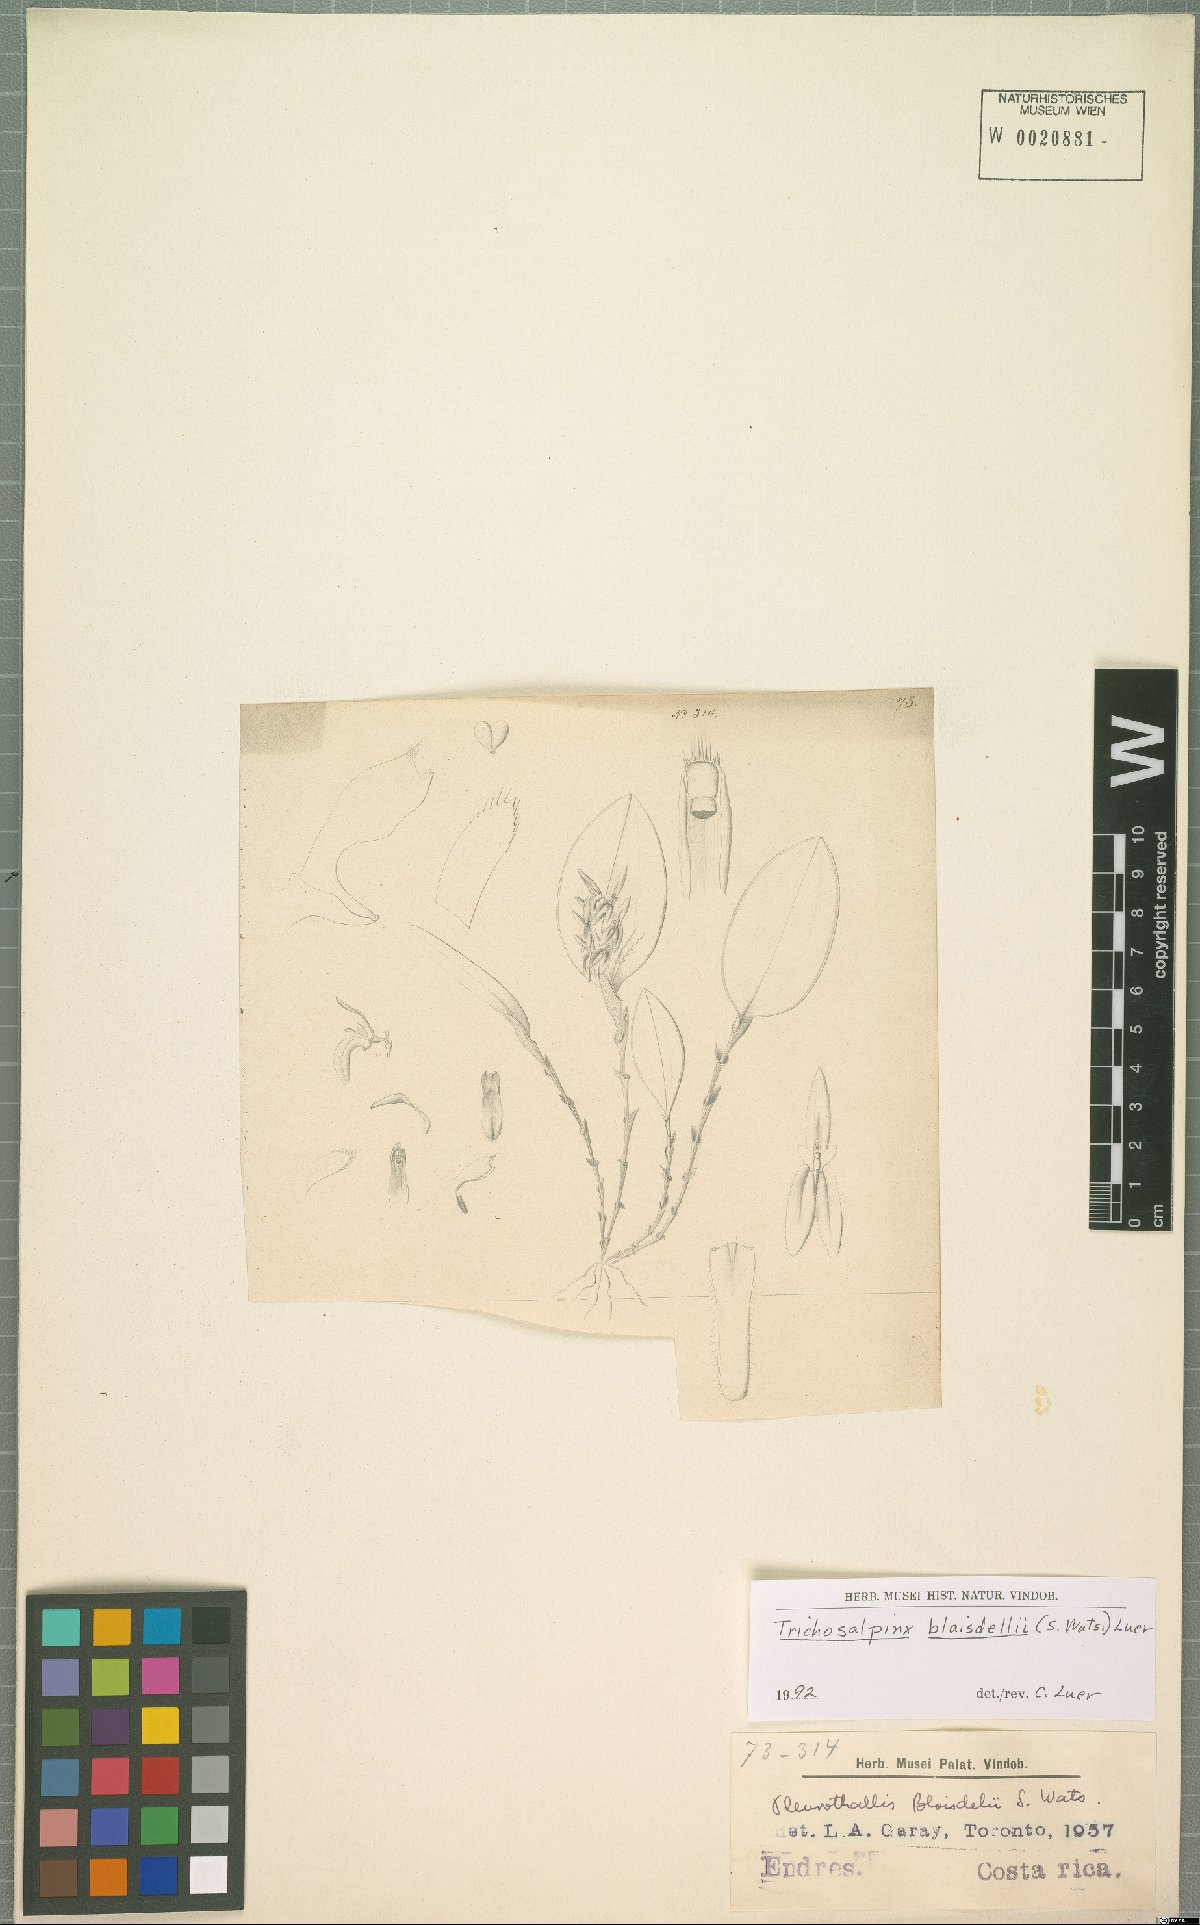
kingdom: Plantae
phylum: Tracheophyta
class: Liliopsida
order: Asparagales
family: Orchidaceae
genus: Trichosalpinx
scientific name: Trichosalpinx blaisdellii
